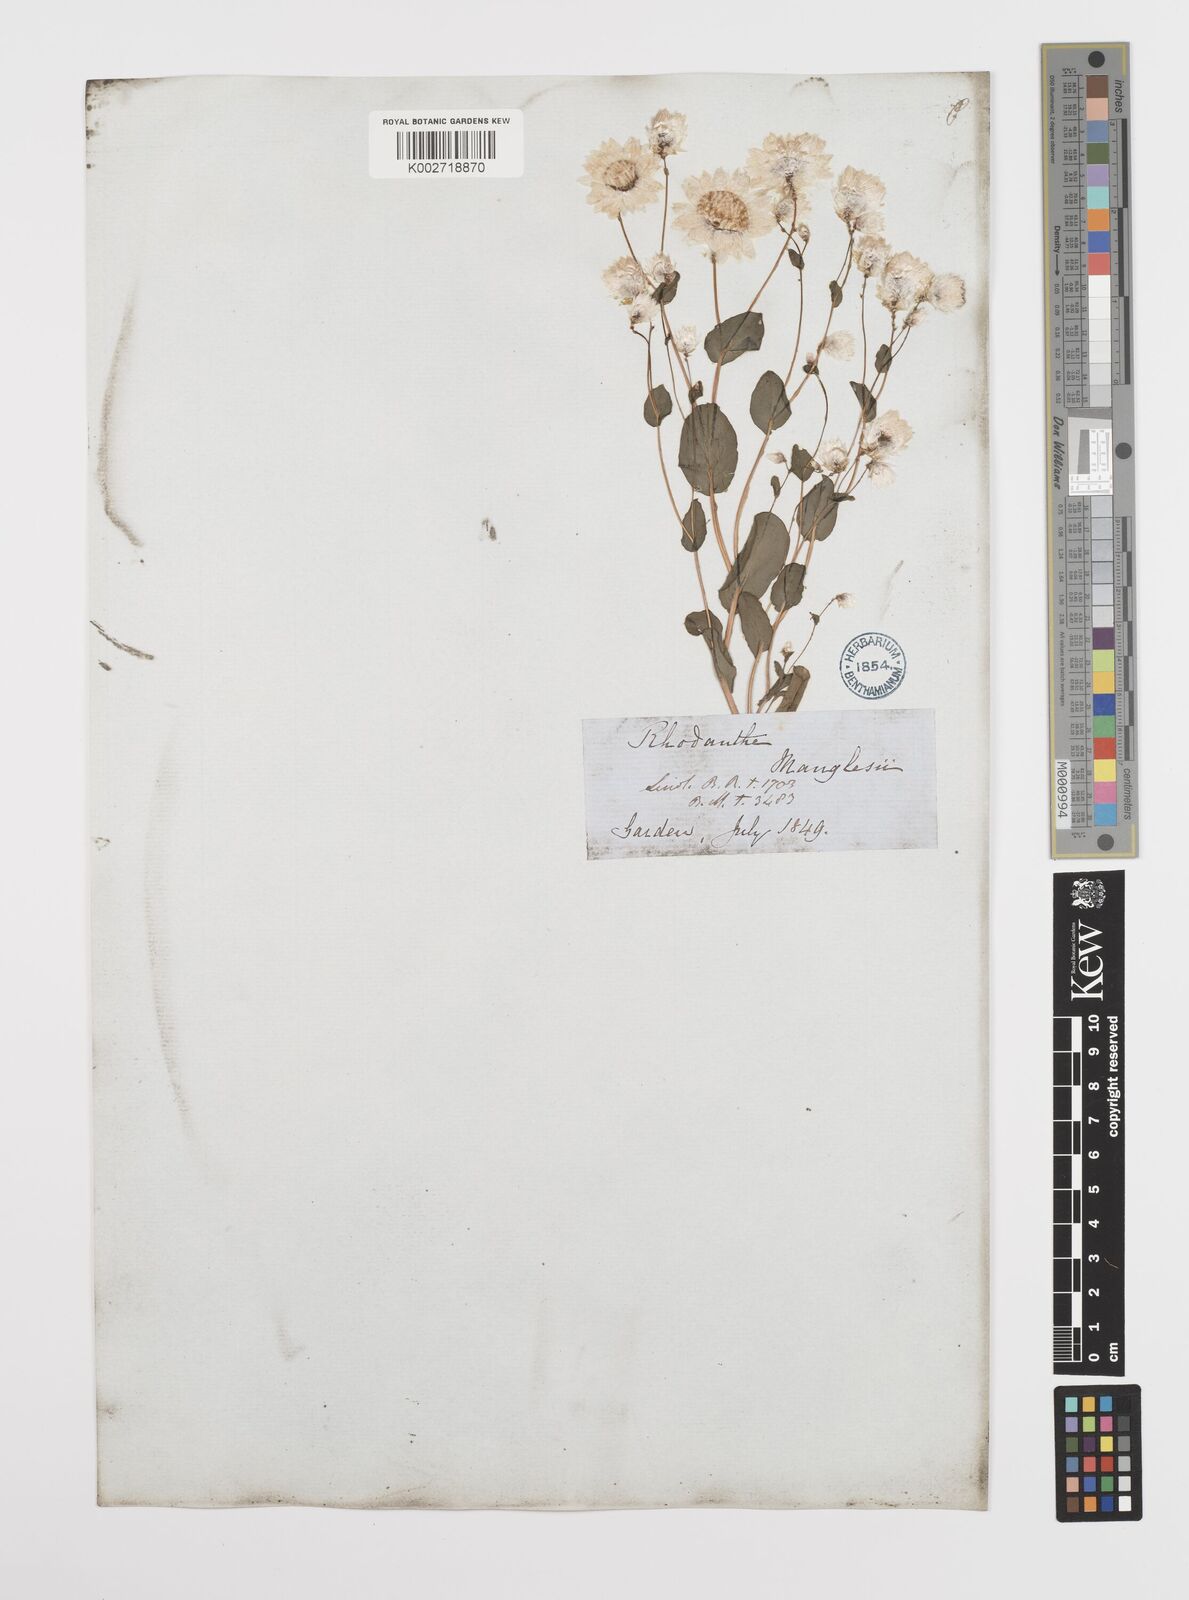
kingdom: Plantae
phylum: Tracheophyta
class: Magnoliopsida
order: Asterales
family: Asteraceae
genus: Rhodanthe
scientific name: Rhodanthe manglesii
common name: Pink sunray
